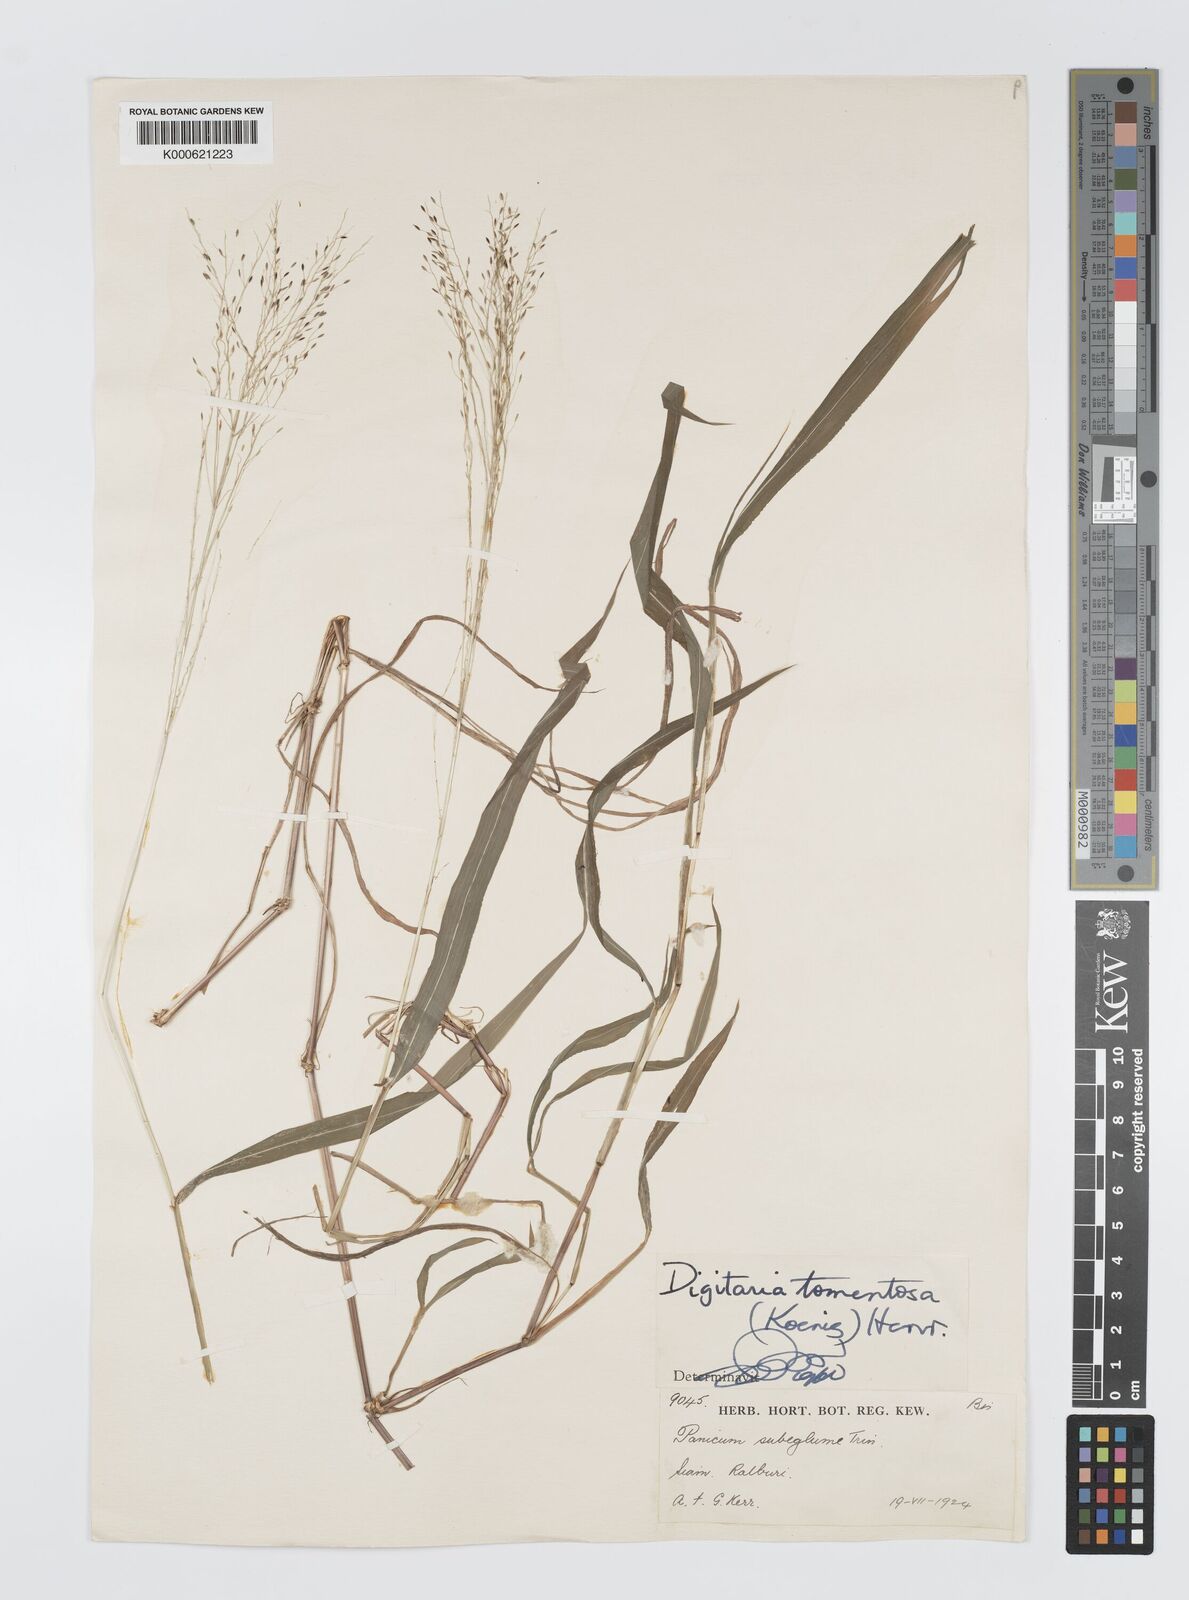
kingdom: Plantae
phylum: Tracheophyta
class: Liliopsida
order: Poales
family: Poaceae
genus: Digitaria
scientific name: Digitaria tomentosa
